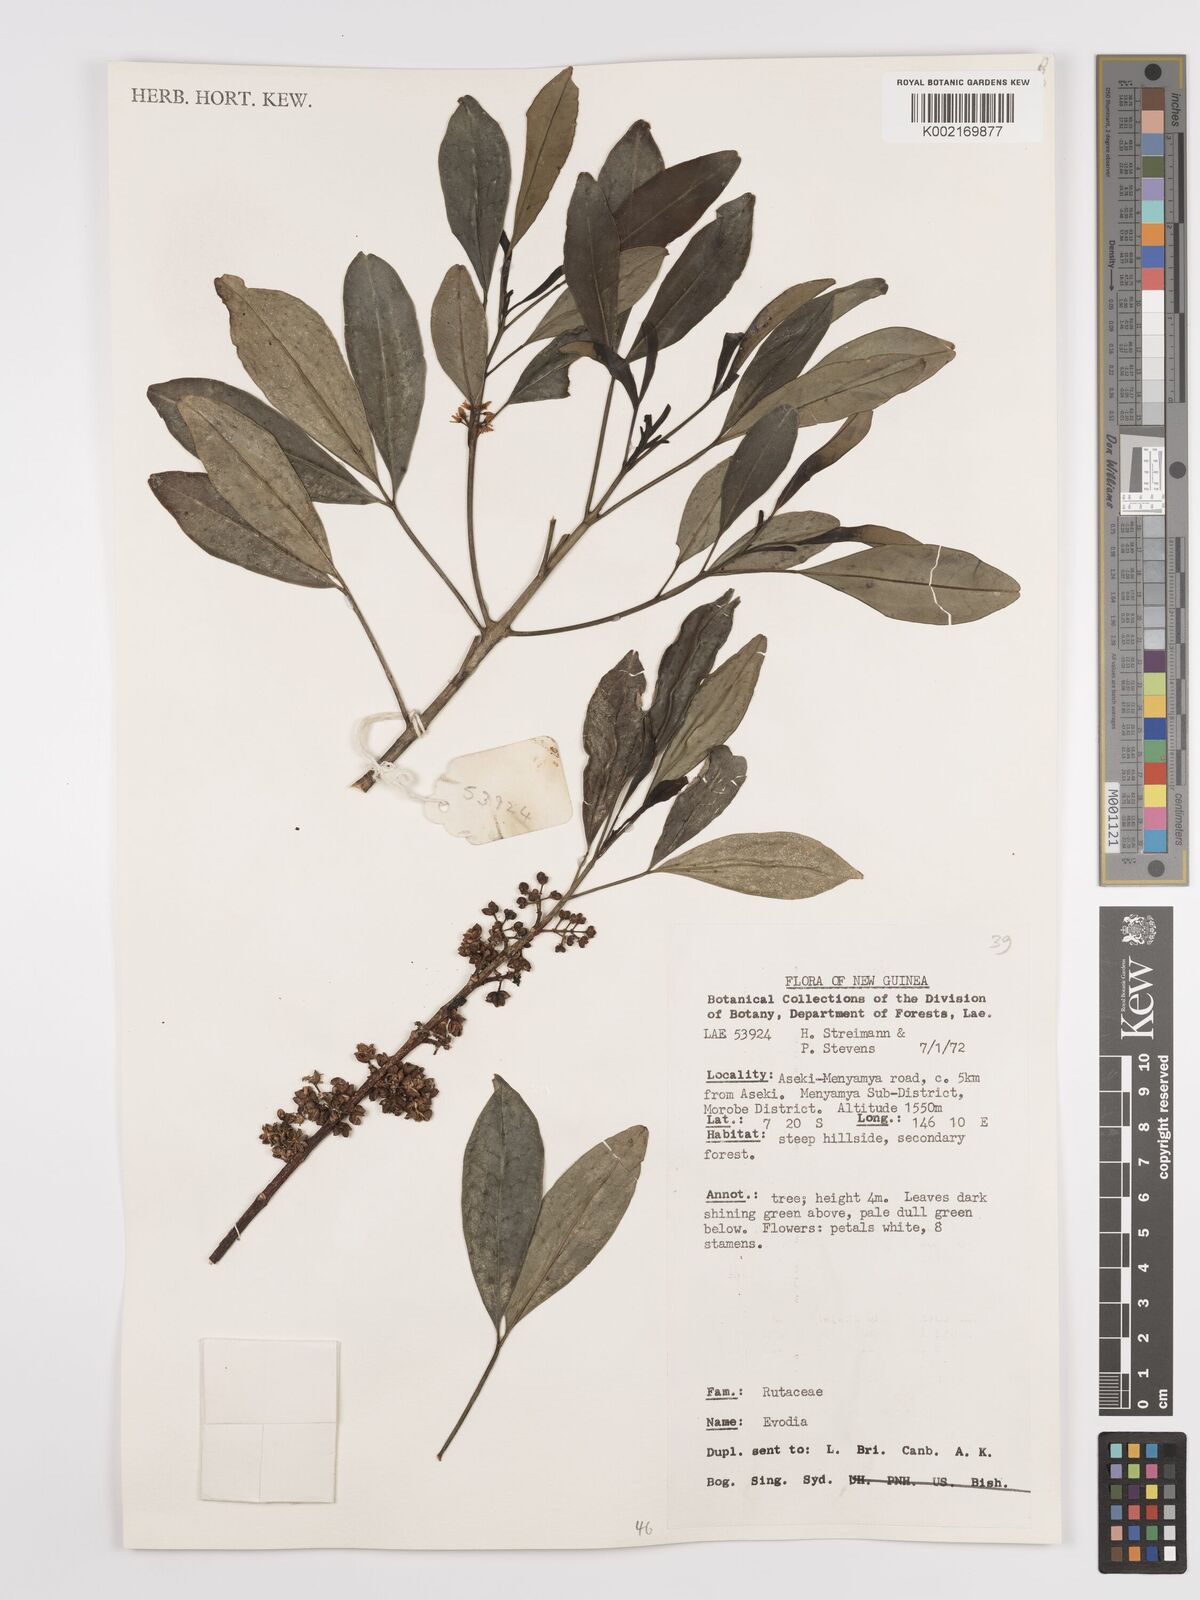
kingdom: Plantae
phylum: Tracheophyta
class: Magnoliopsida
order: Sapindales
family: Rutaceae
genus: Euodia
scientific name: Euodia
